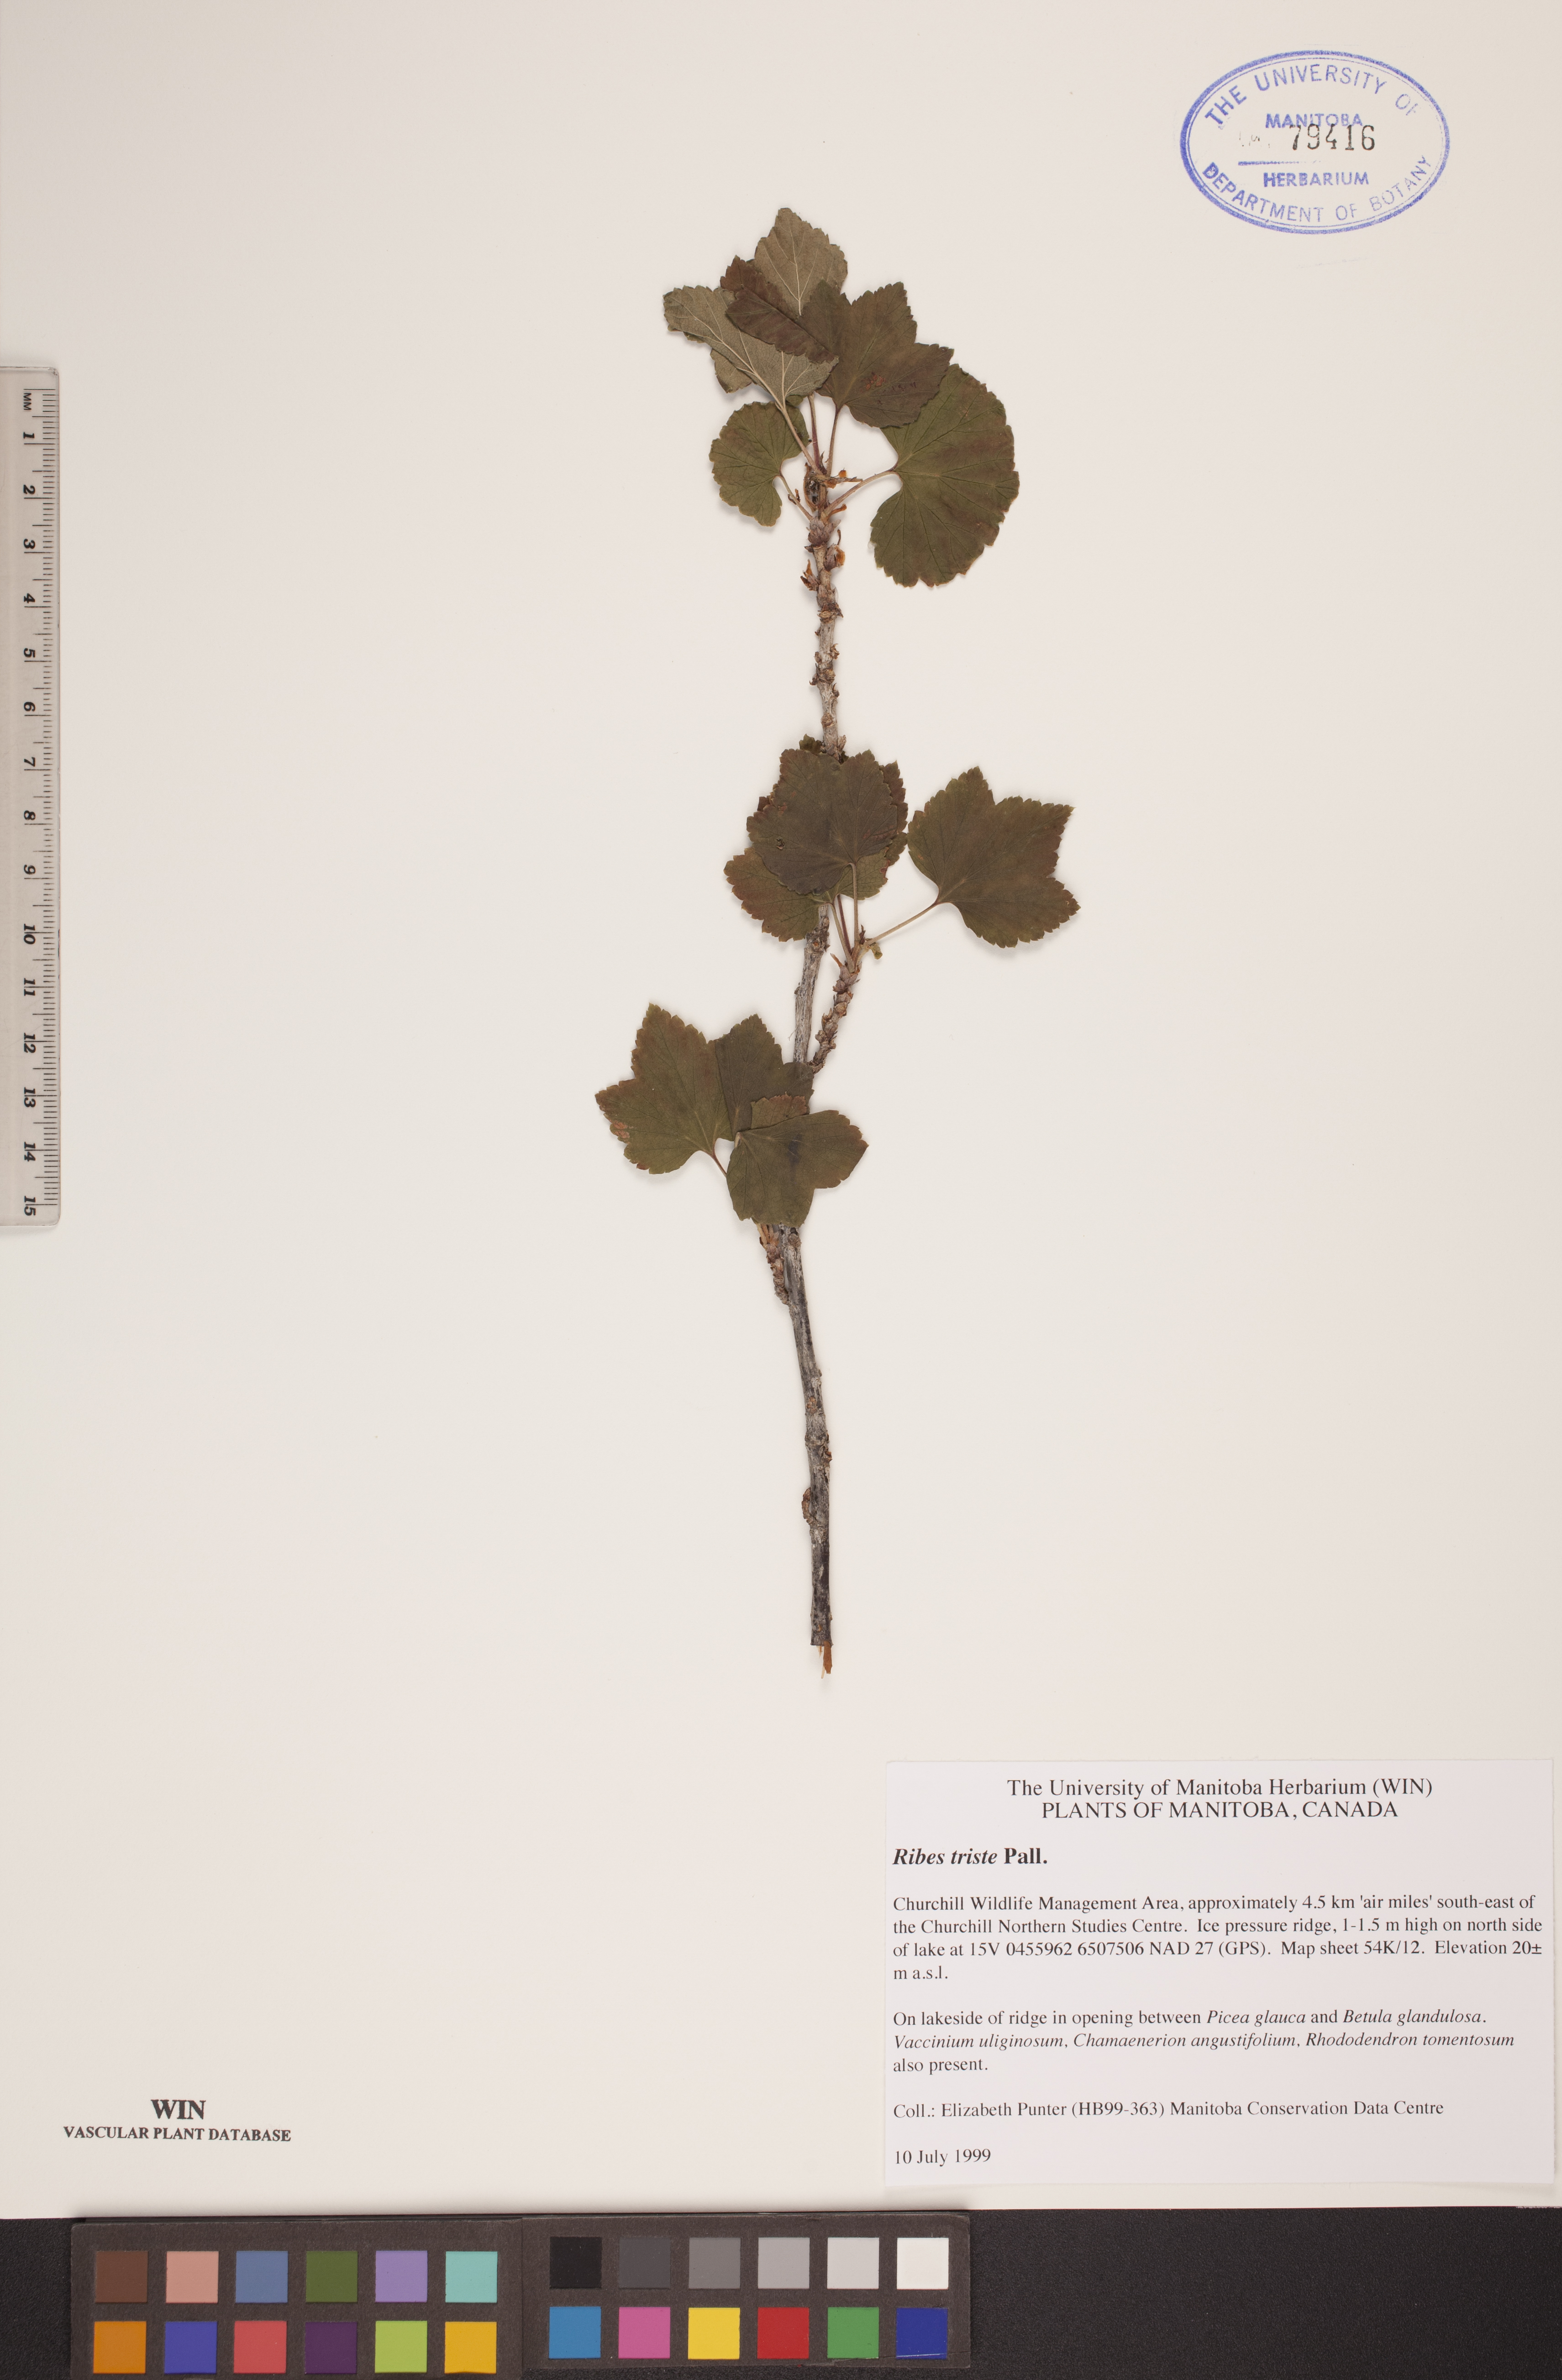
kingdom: Plantae
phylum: Tracheophyta
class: Magnoliopsida
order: Saxifragales
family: Grossulariaceae
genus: Ribes
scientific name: Ribes triste
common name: Swamp red currant
